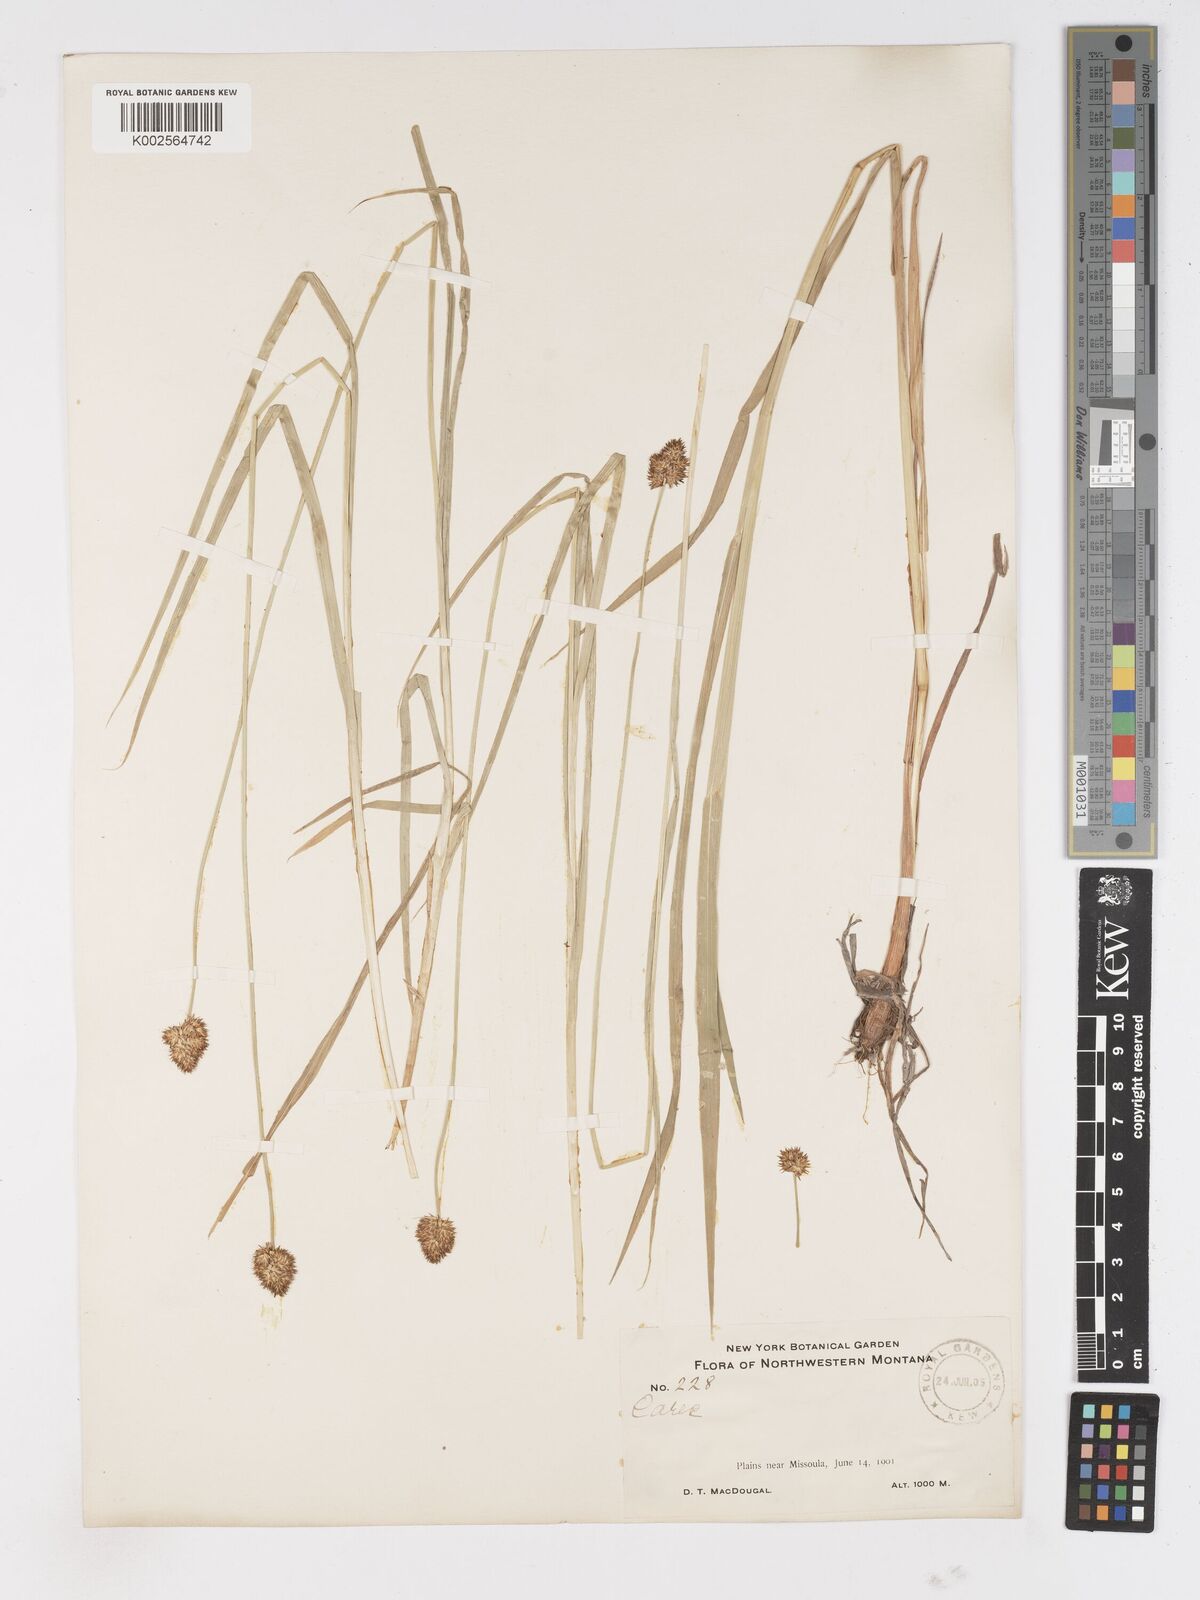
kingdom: Plantae
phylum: Tracheophyta
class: Liliopsida
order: Poales
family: Cyperaceae
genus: Carex
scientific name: Carex
